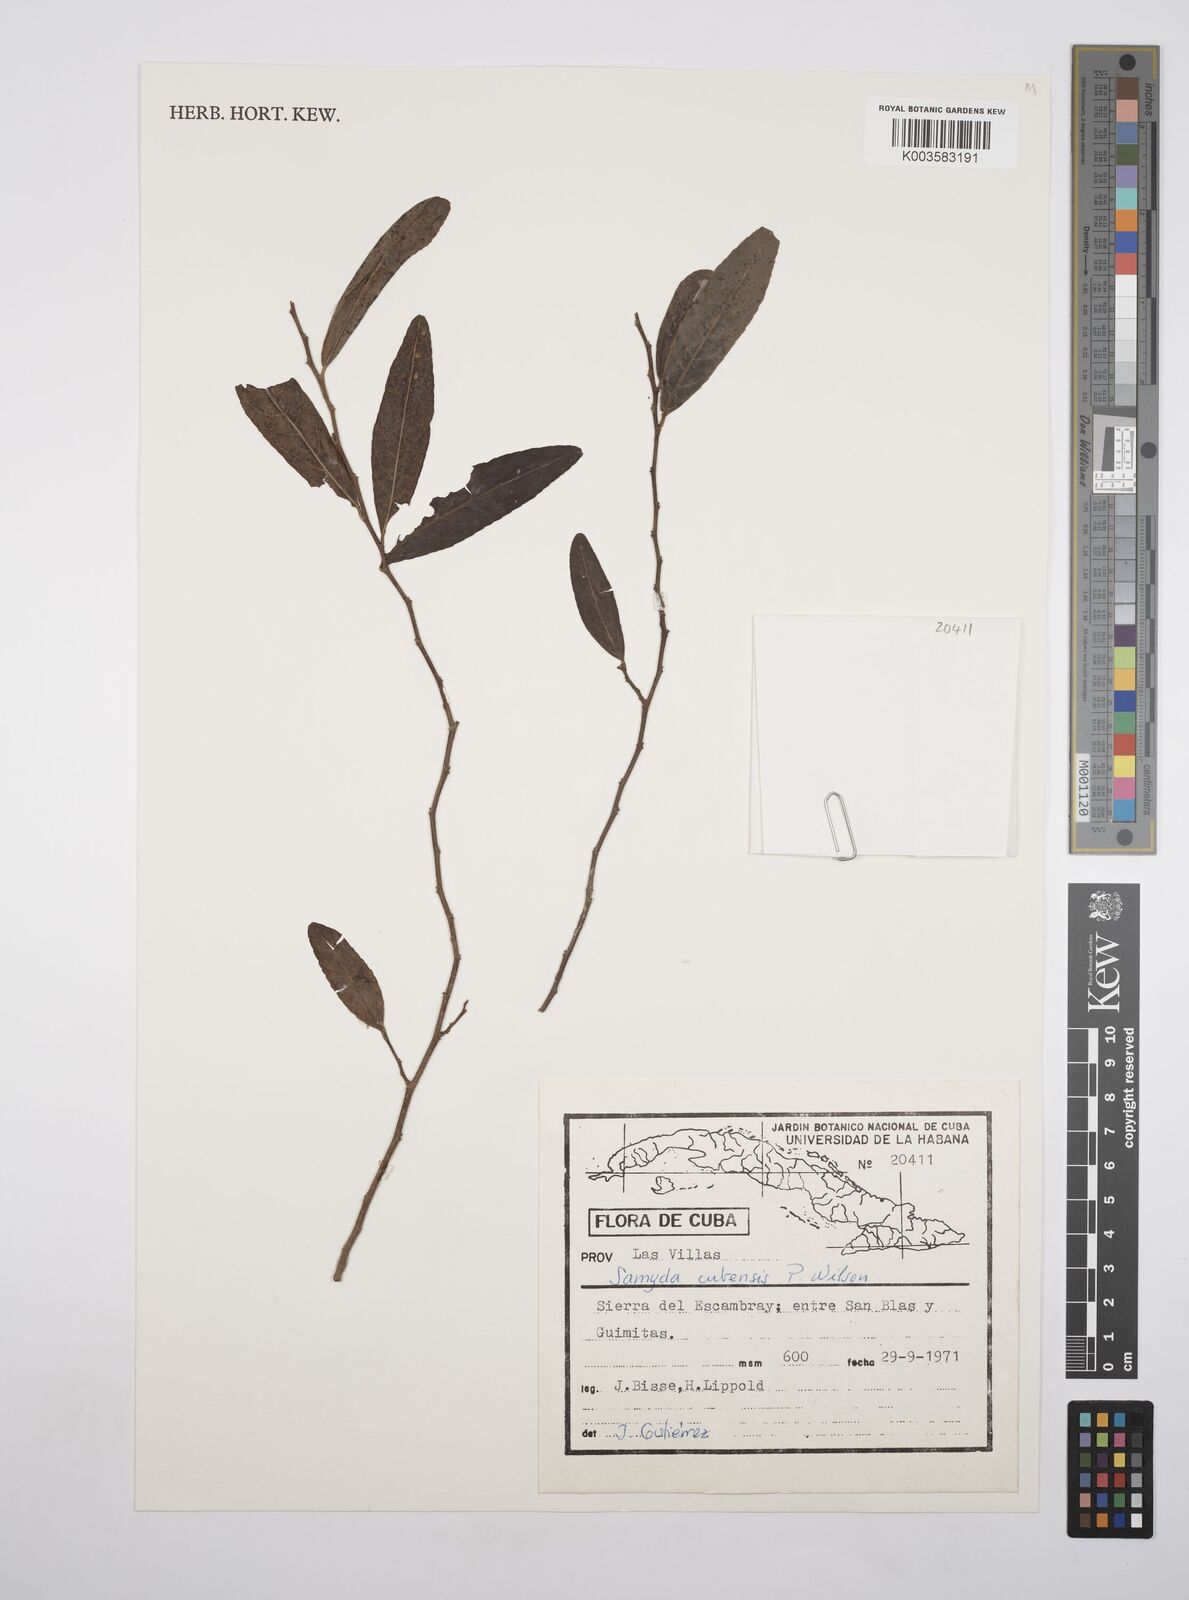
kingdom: Plantae
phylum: Tracheophyta
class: Magnoliopsida
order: Malpighiales
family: Salicaceae
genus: Casearia
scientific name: Casearia lemkeana
